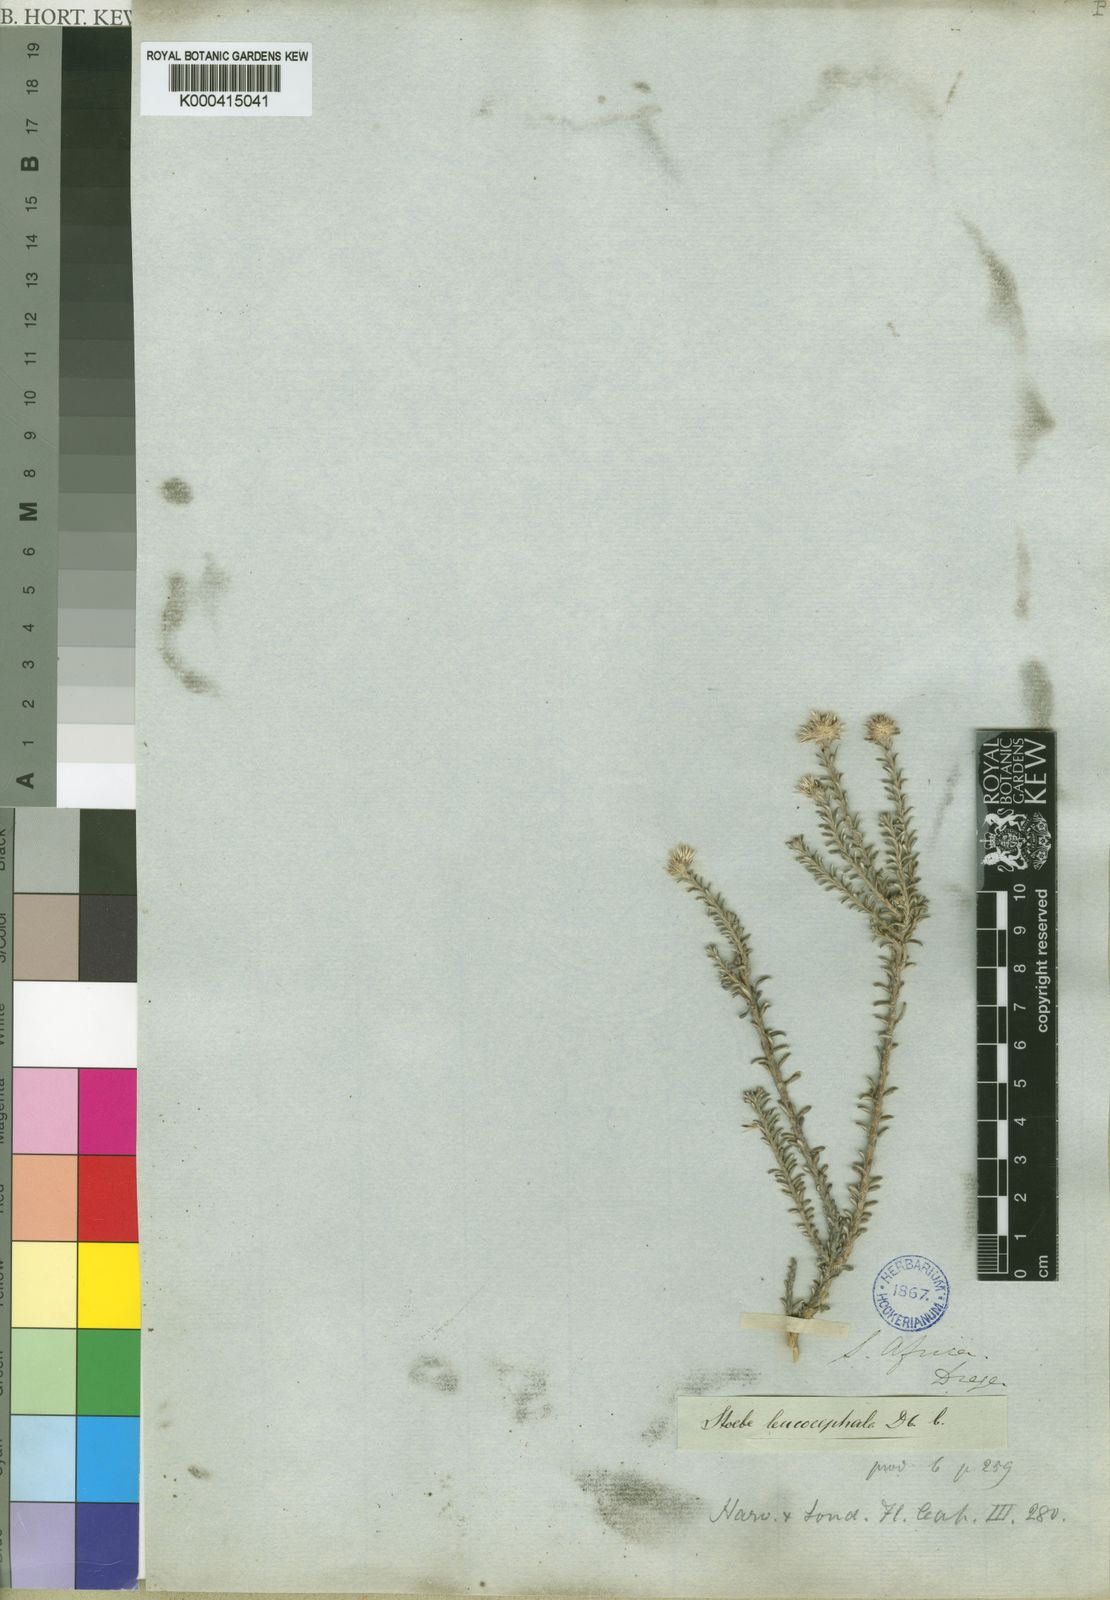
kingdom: Plantae
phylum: Tracheophyta
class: Magnoliopsida
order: Asterales
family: Asteraceae
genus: Stoebe
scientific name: Stoebe leucocephala
